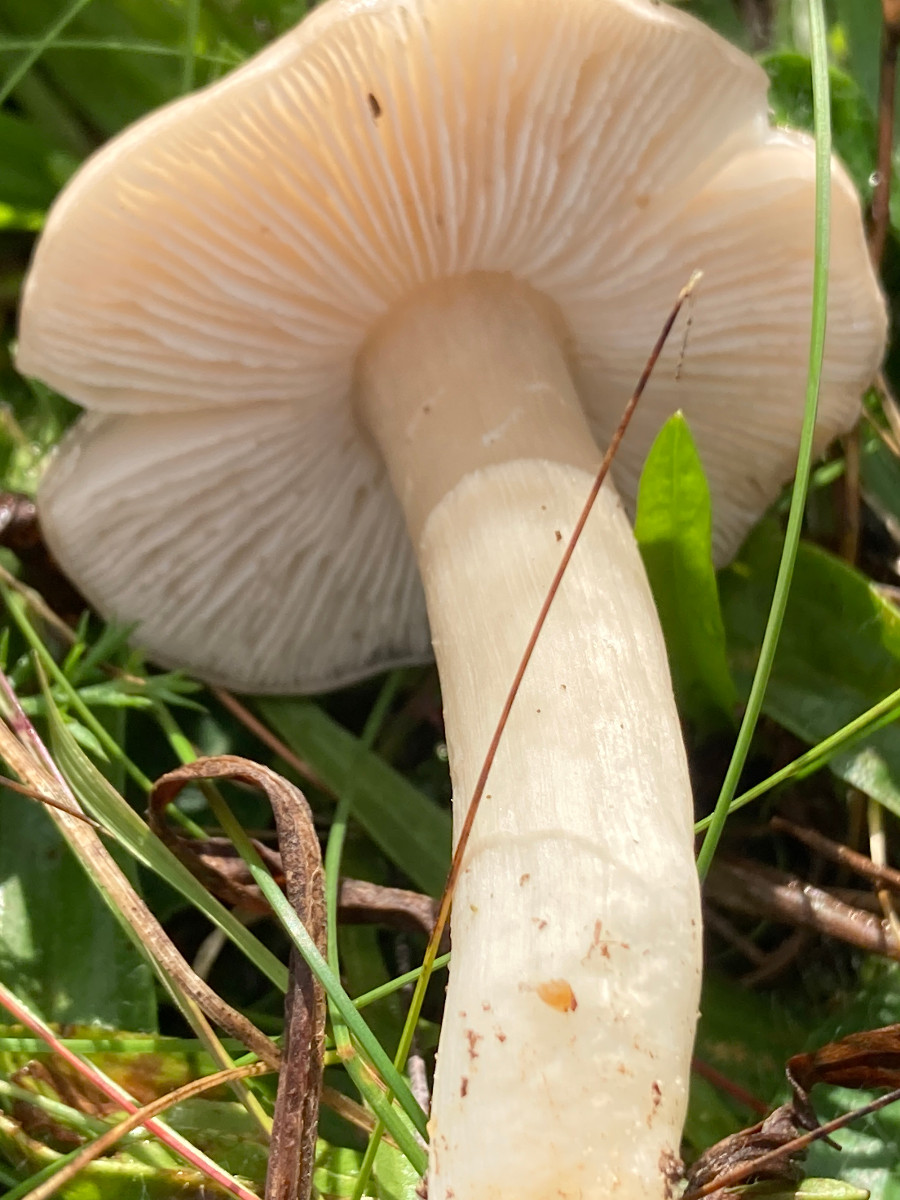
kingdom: Fungi
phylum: Basidiomycota
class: Agaricomycetes
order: Agaricales
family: Entolomataceae
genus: Entoloma
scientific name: Entoloma prunuloides
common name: mel-rødblad
